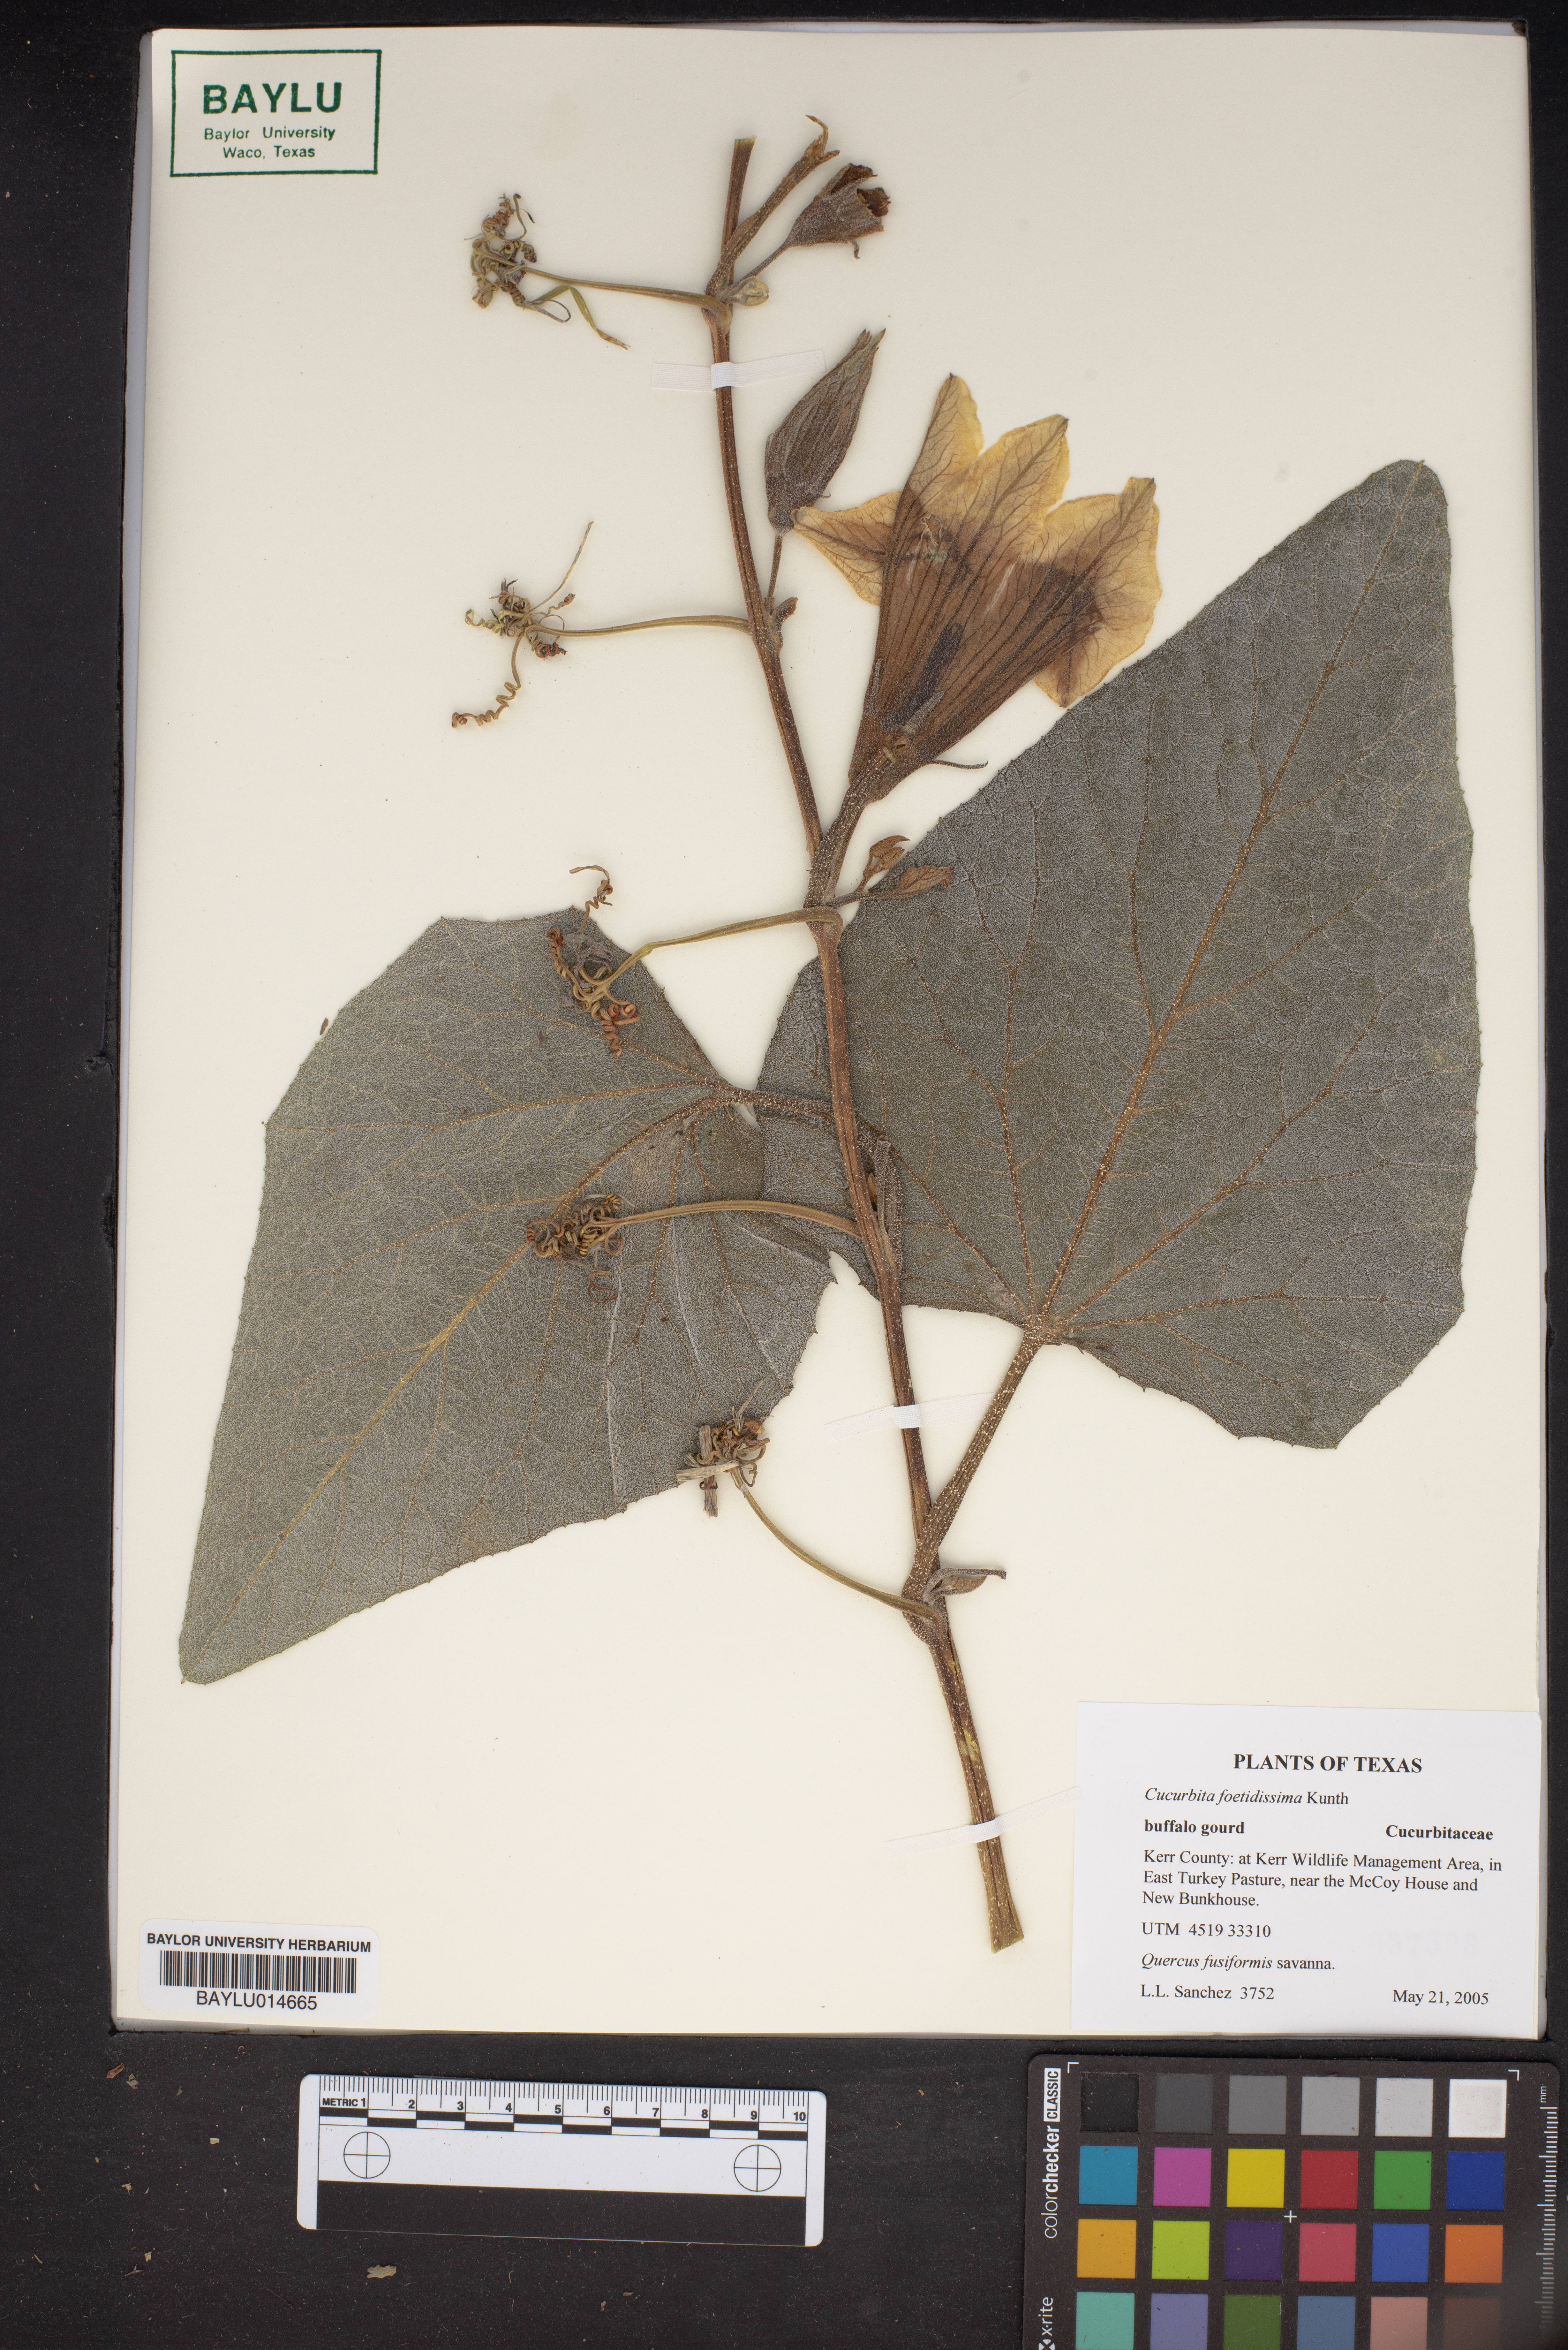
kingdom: Plantae
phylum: Tracheophyta
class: Magnoliopsida
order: Cucurbitales
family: Cucurbitaceae
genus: Cucurbita
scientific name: Cucurbita foetidissima
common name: Buffalo gourd
